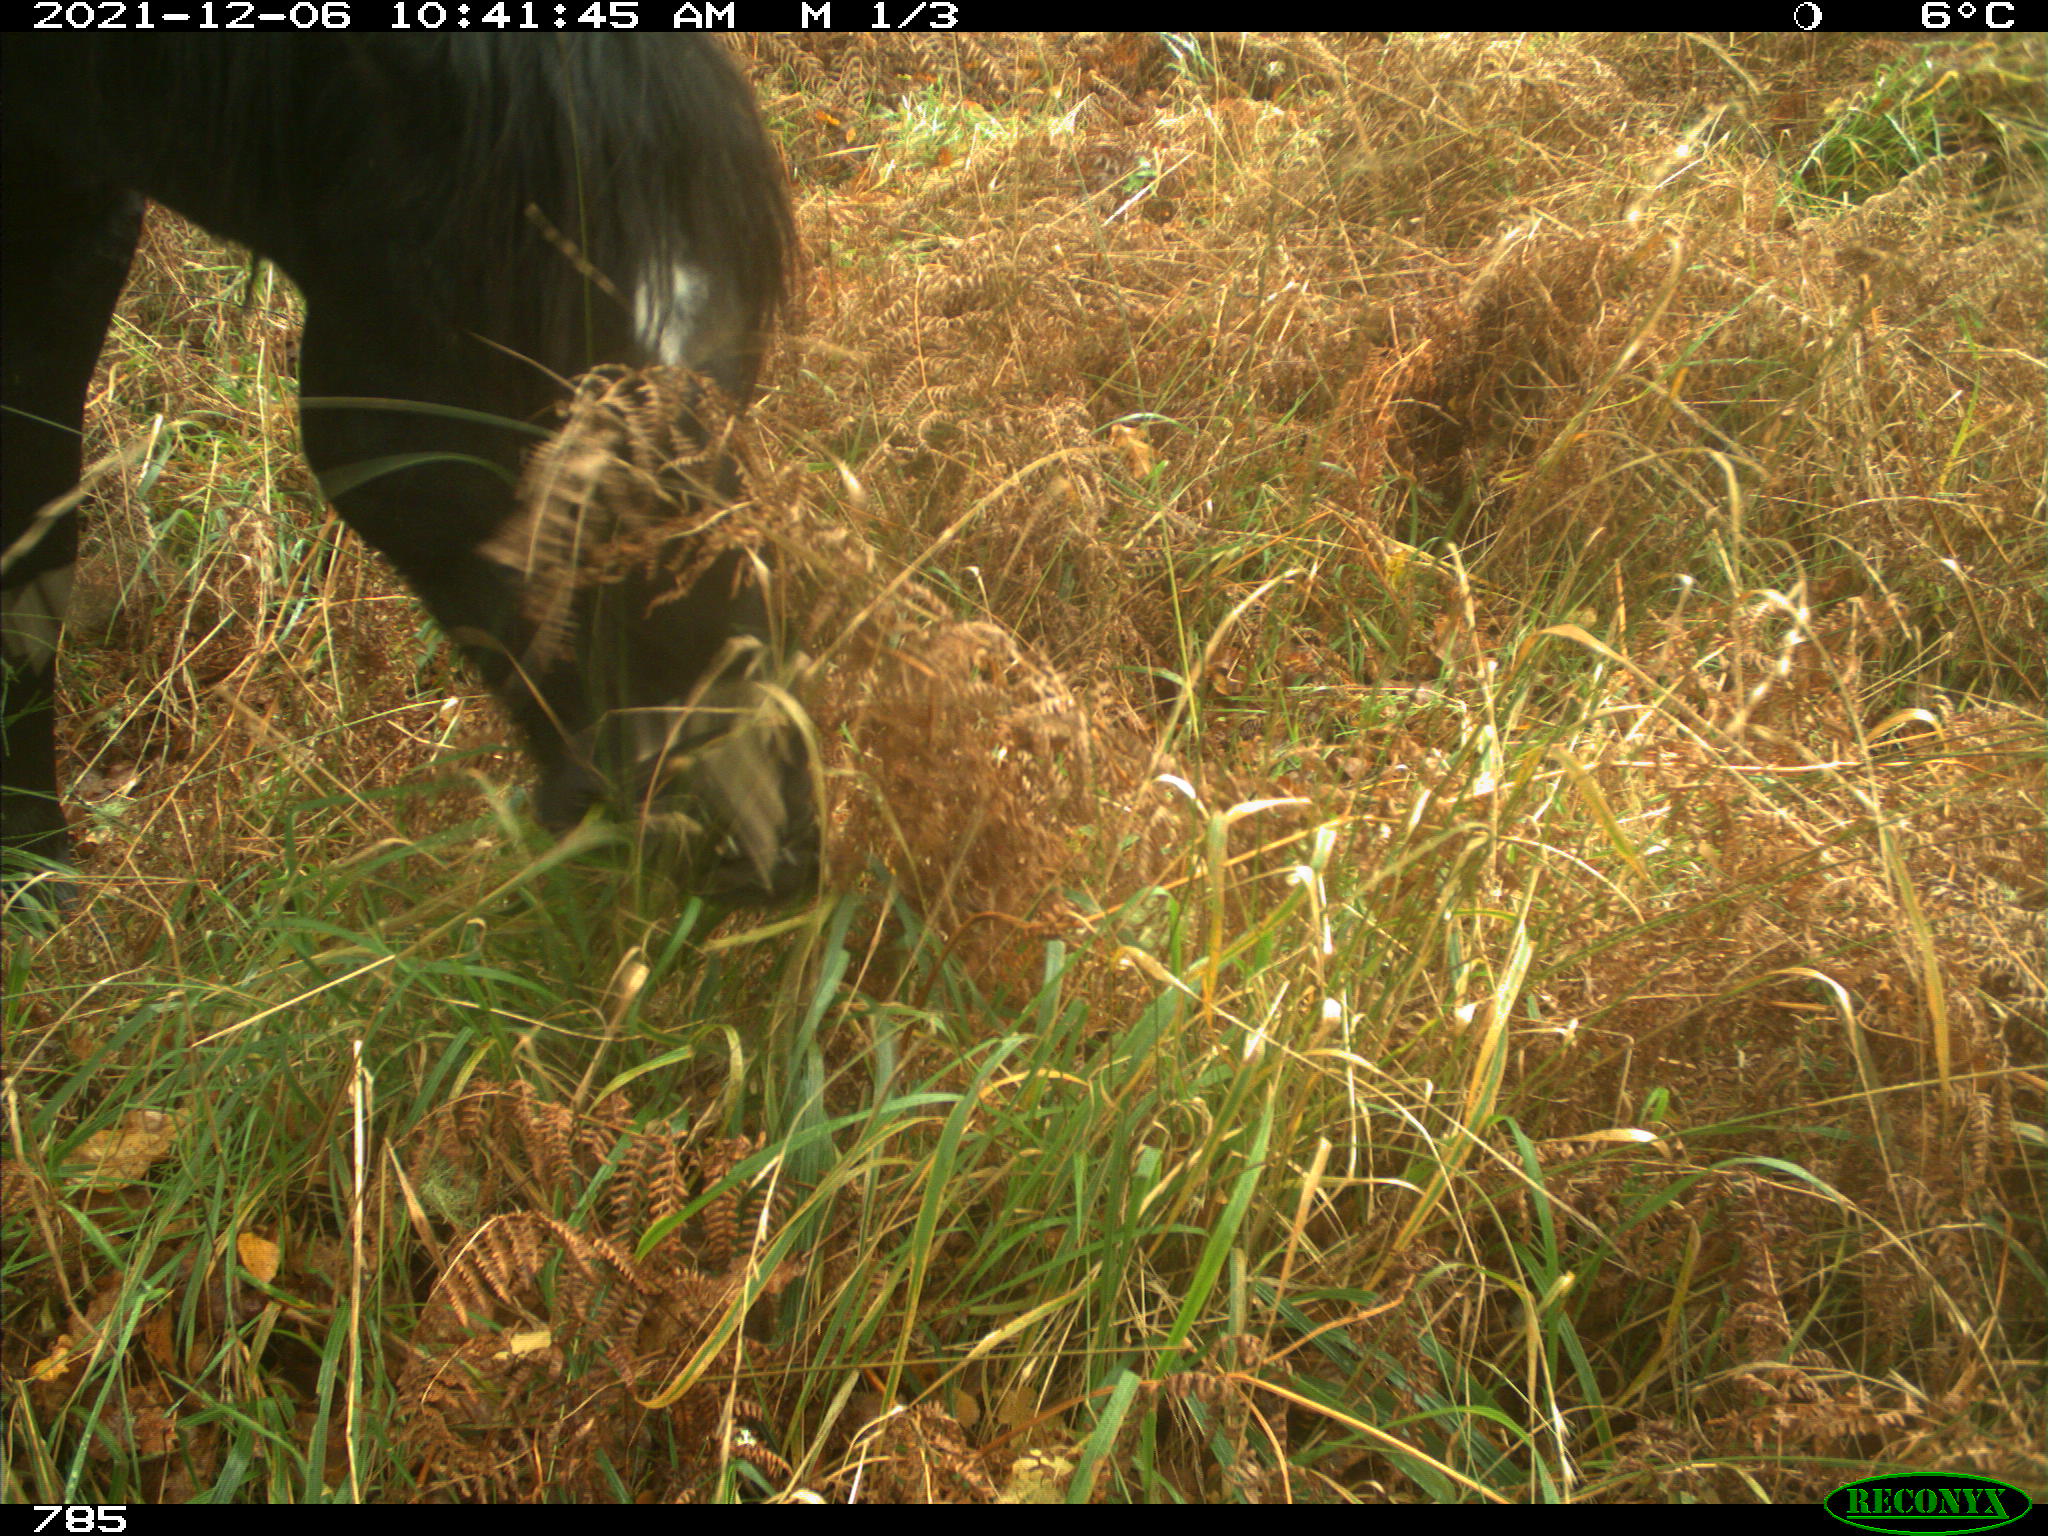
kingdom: Animalia
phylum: Chordata
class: Mammalia
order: Perissodactyla
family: Equidae
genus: Equus
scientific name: Equus caballus
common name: Horse
